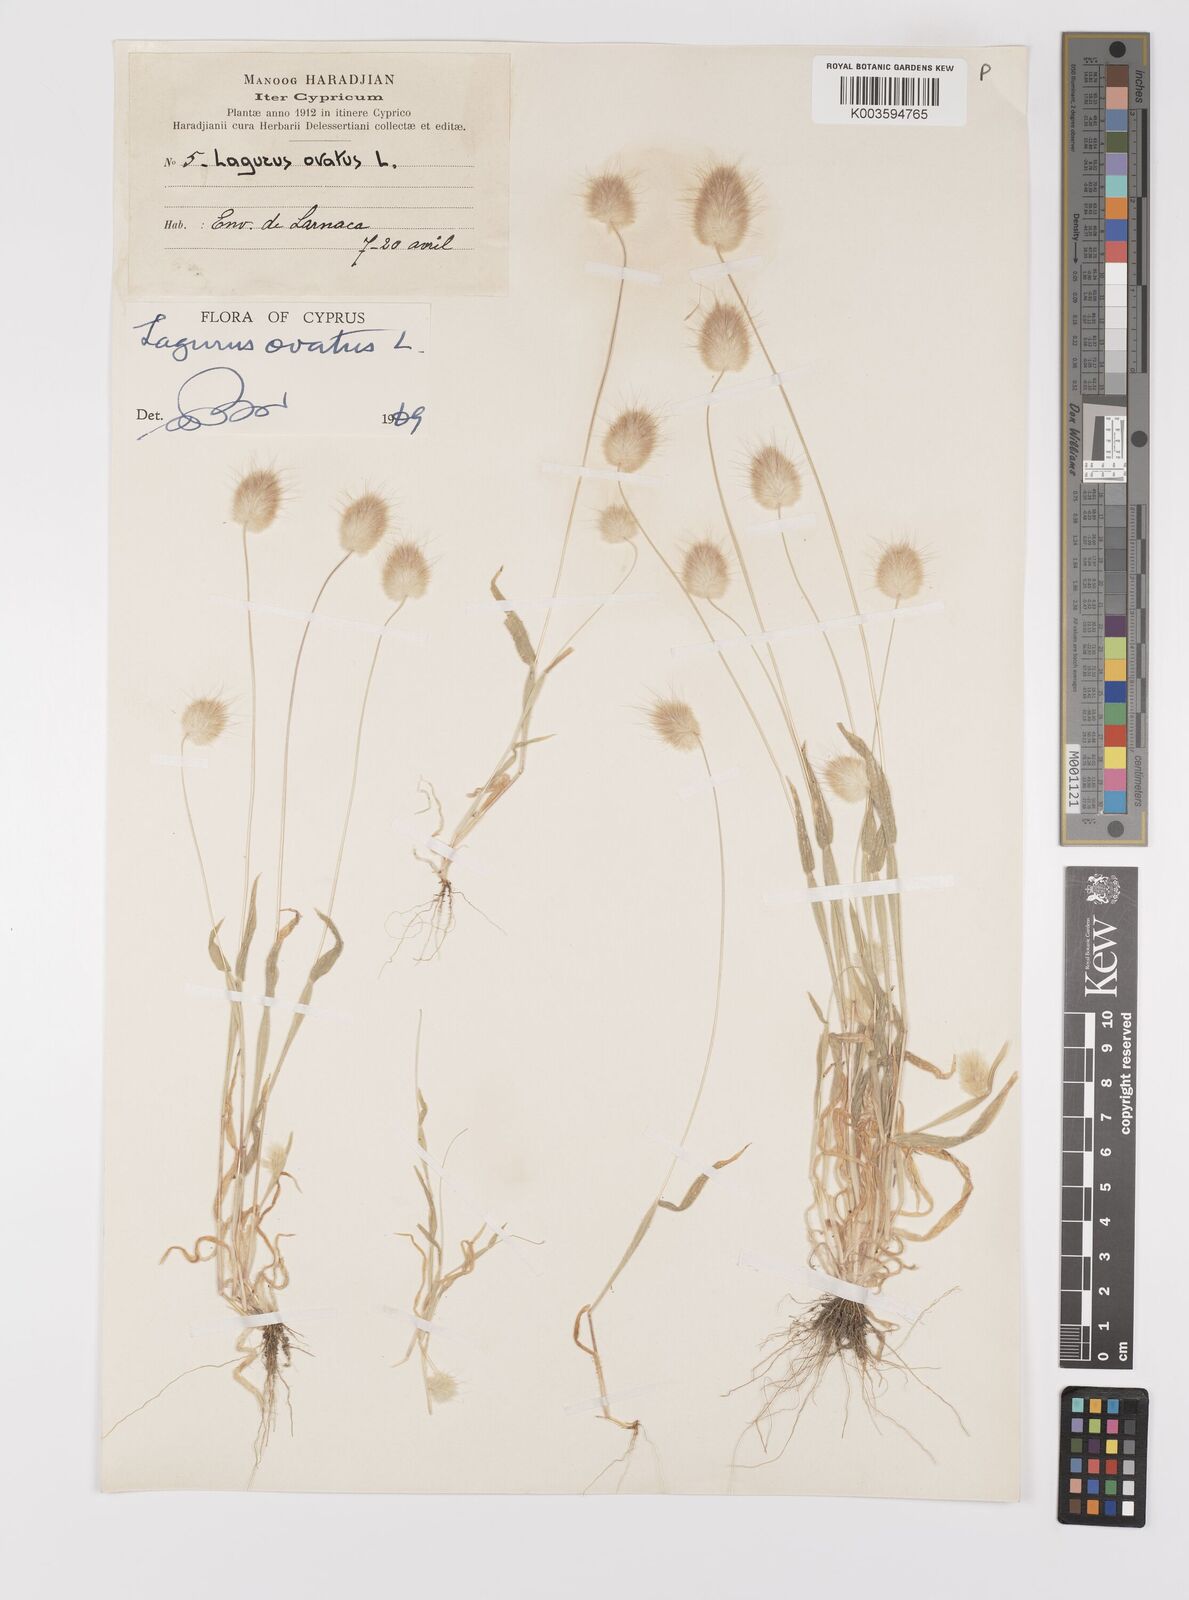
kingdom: Plantae
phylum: Tracheophyta
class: Liliopsida
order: Poales
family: Poaceae
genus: Lagurus
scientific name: Lagurus ovatus
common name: Hare's-tail
